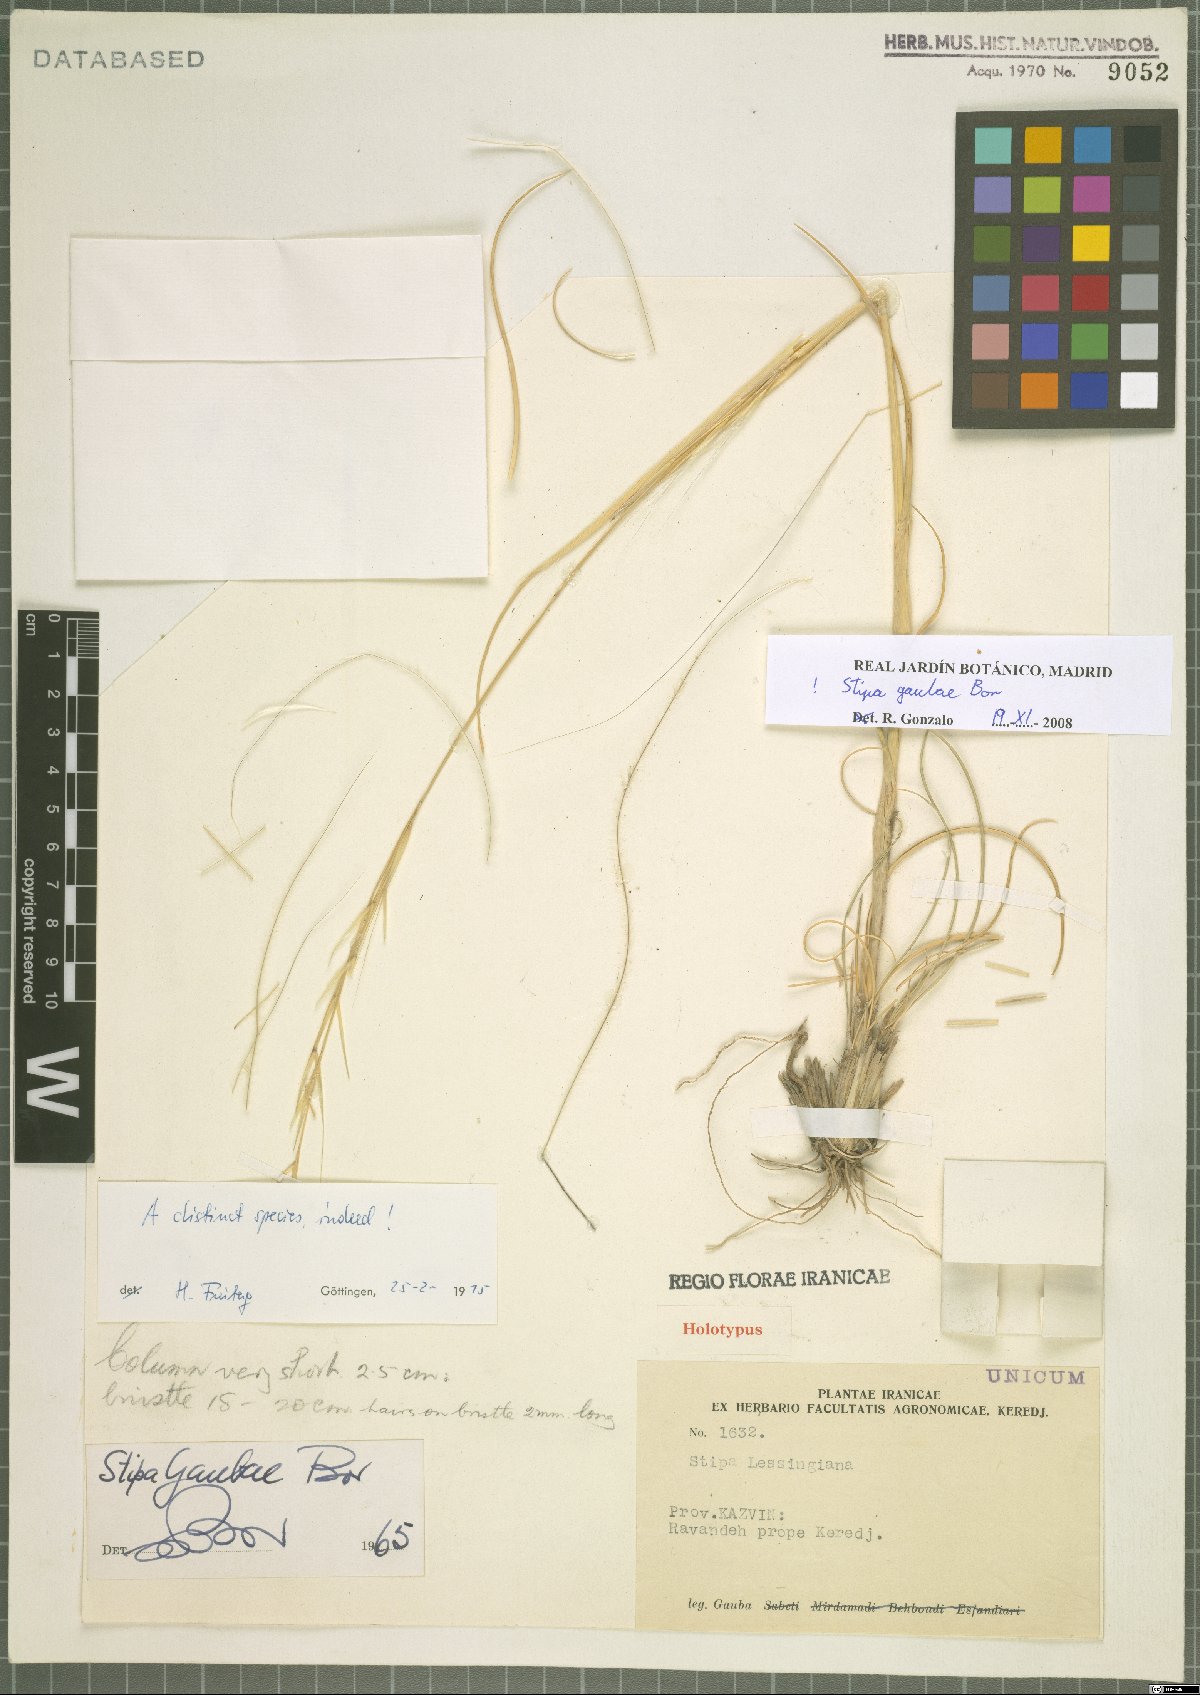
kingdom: Plantae
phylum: Tracheophyta
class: Liliopsida
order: Poales
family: Poaceae
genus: Stipa
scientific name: Stipa gaubae
